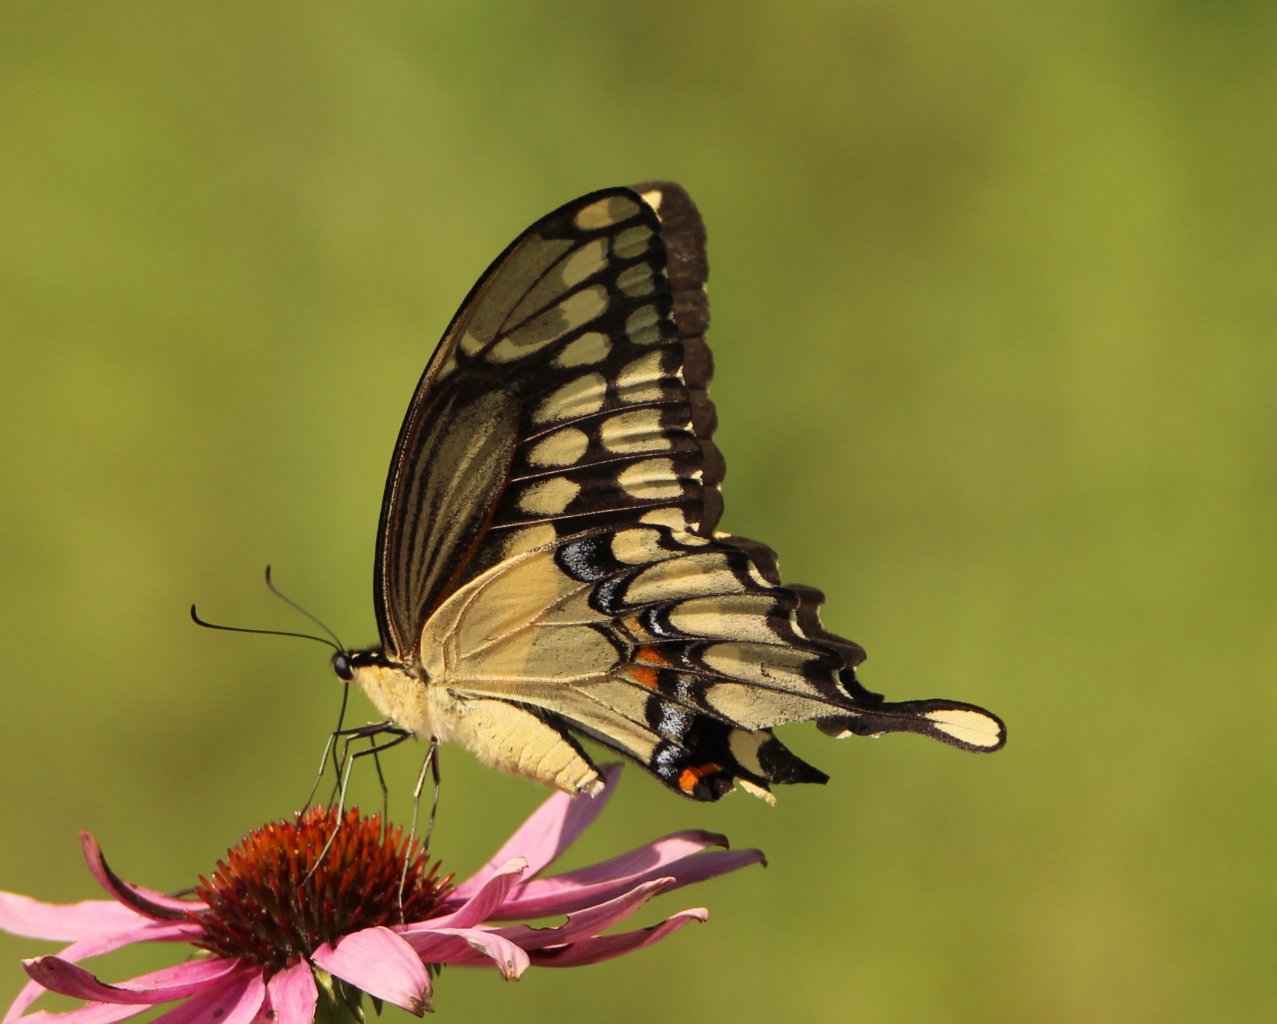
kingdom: Animalia
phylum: Arthropoda
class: Insecta
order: Lepidoptera
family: Papilionidae
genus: Papilio
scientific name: Papilio cresphontes
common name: Eastern Giant Swallowtail
